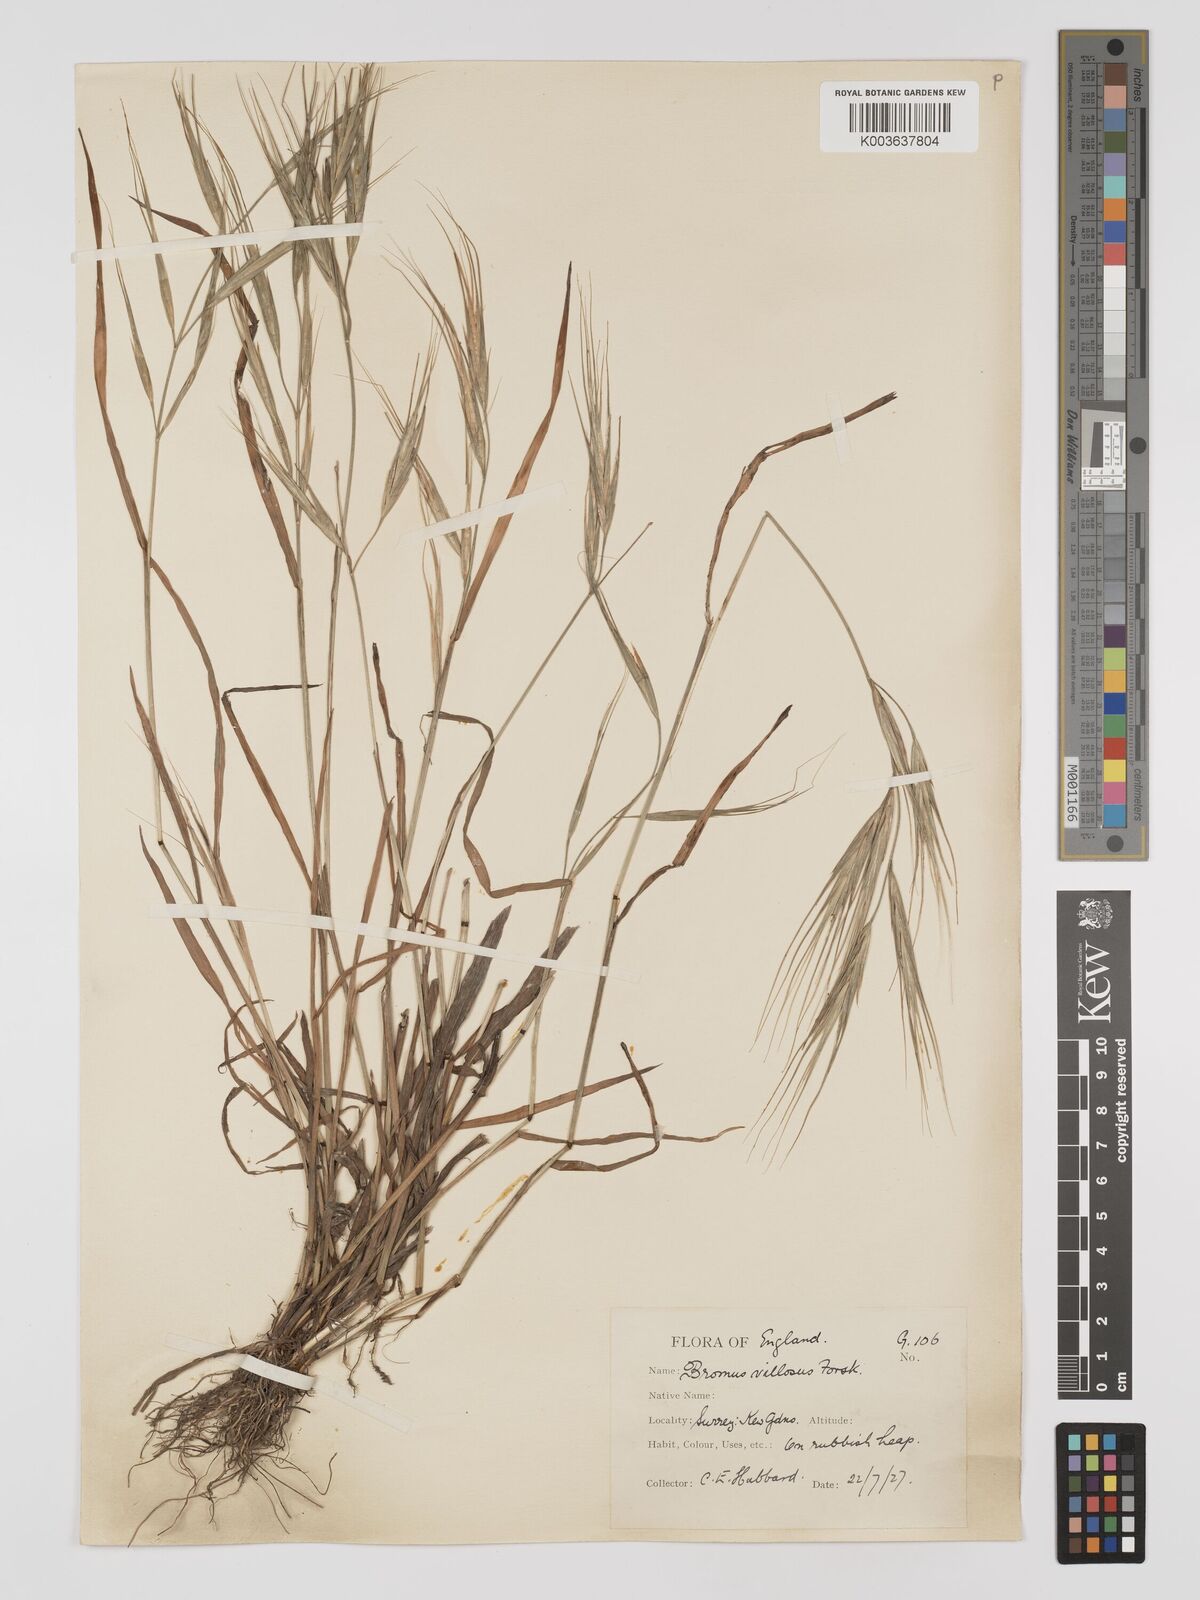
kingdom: Plantae
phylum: Tracheophyta
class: Liliopsida
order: Poales
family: Poaceae
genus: Bromus
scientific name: Bromus
